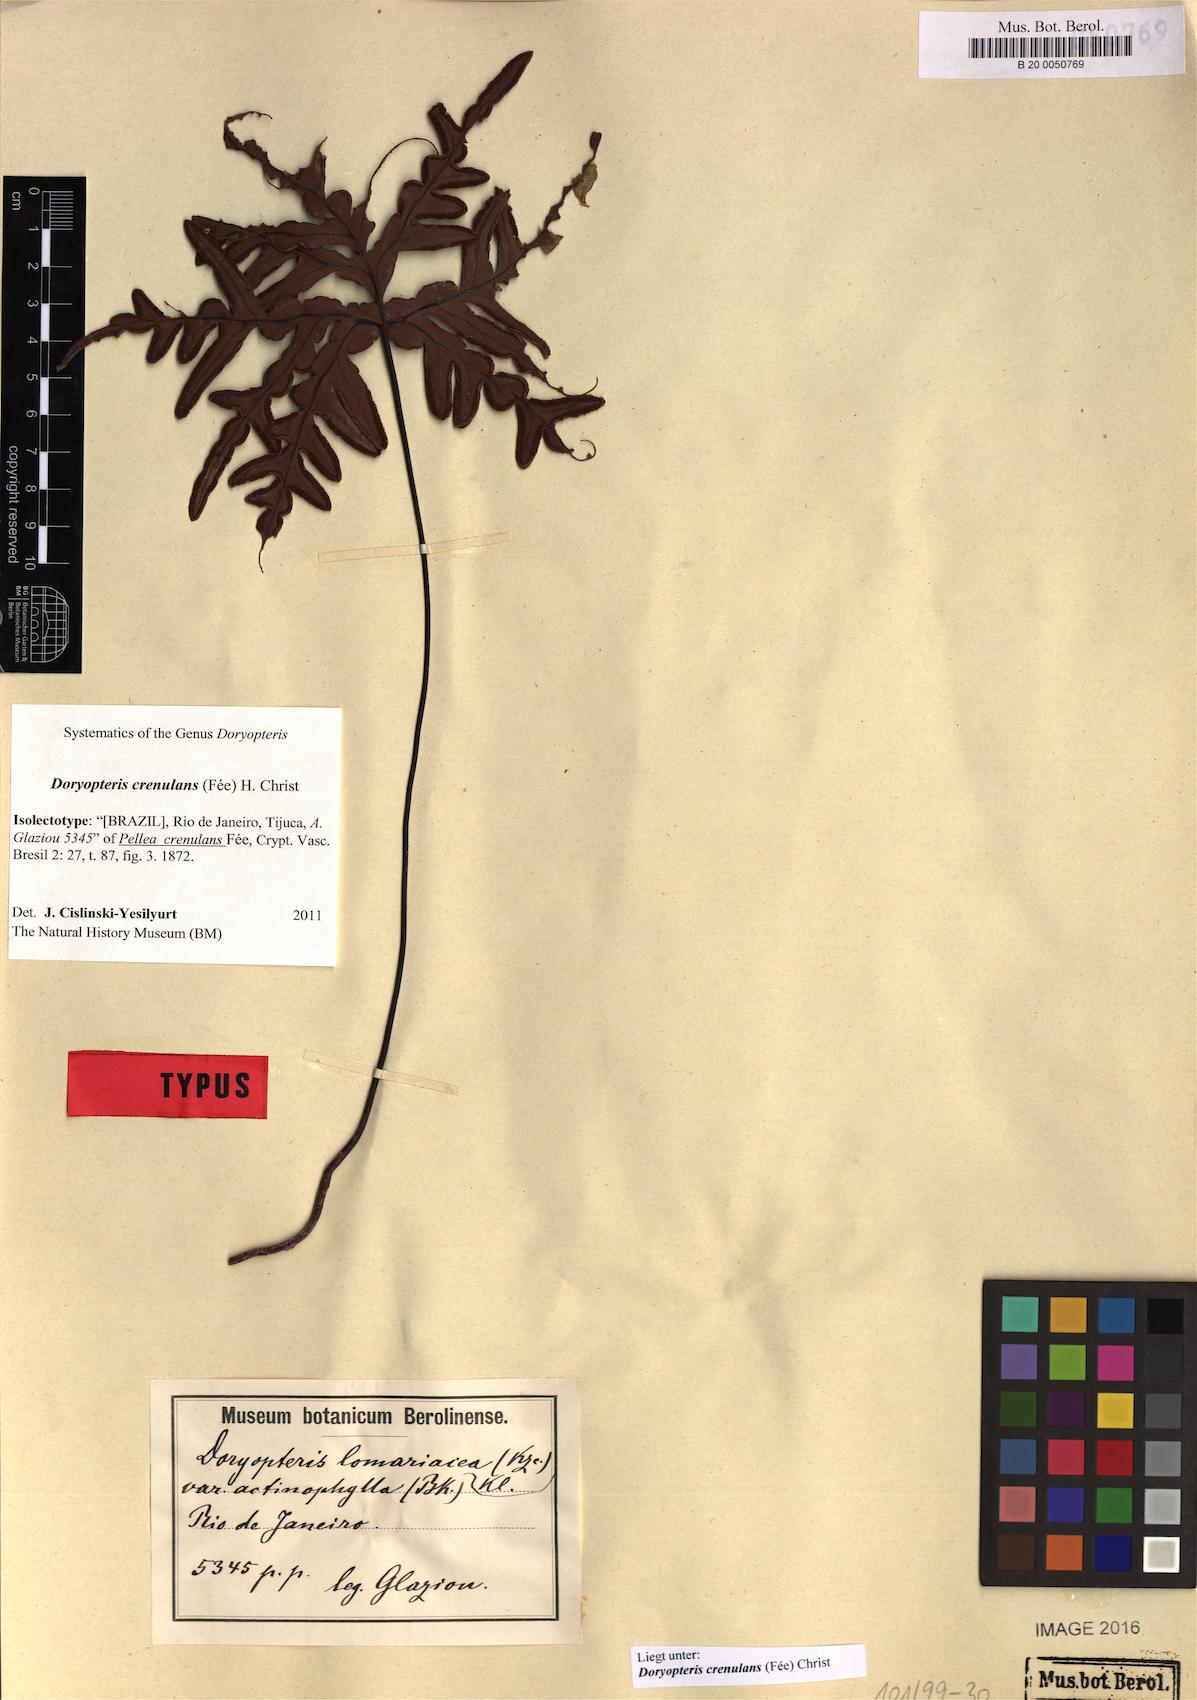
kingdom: Plantae
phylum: Tracheophyta
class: Polypodiopsida
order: Polypodiales
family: Pteridaceae
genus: Lytoneuron
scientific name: Lytoneuron crenulans
